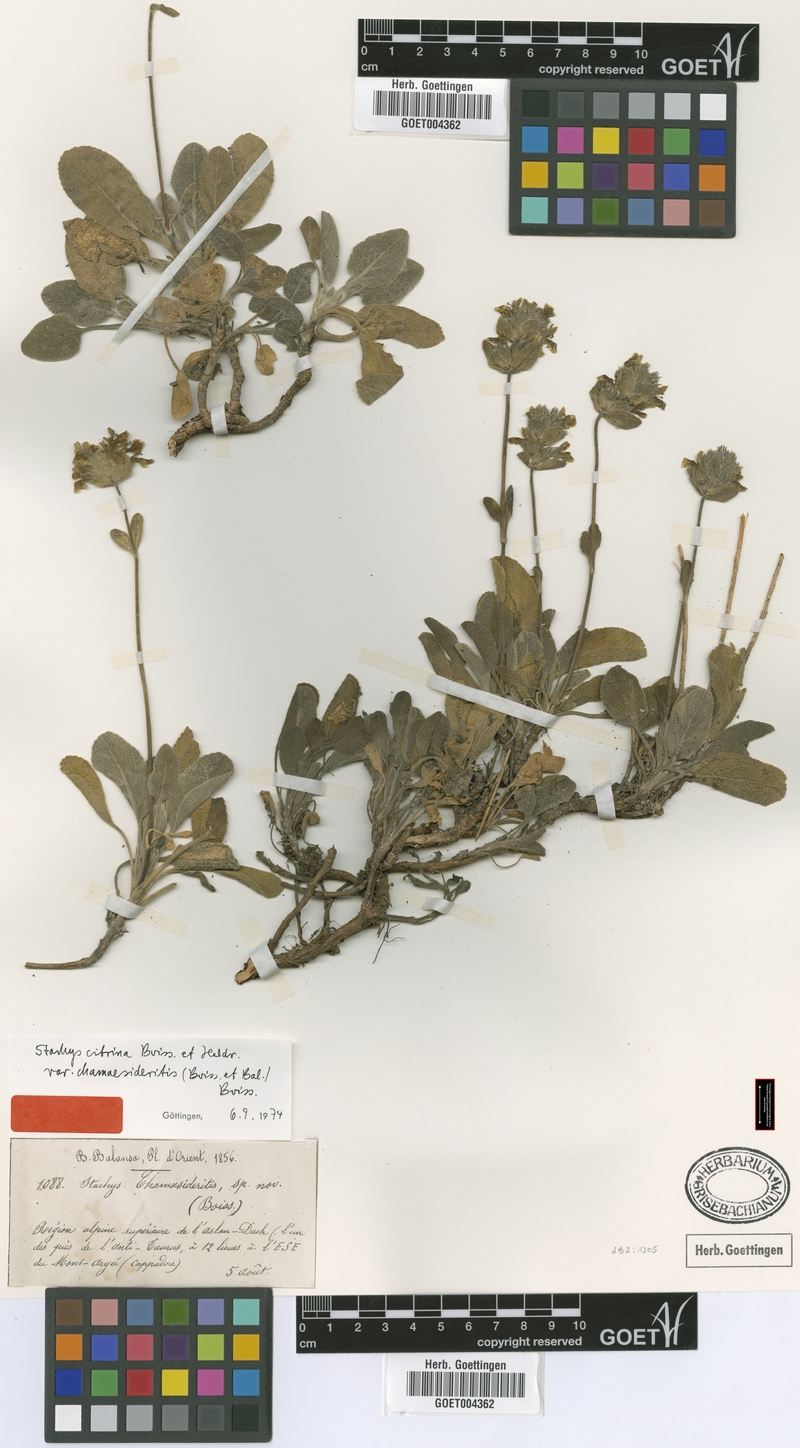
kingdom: Plantae
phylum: Tracheophyta
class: Magnoliopsida
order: Lamiales
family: Lamiaceae
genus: Stachys
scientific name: Stachys citrina
